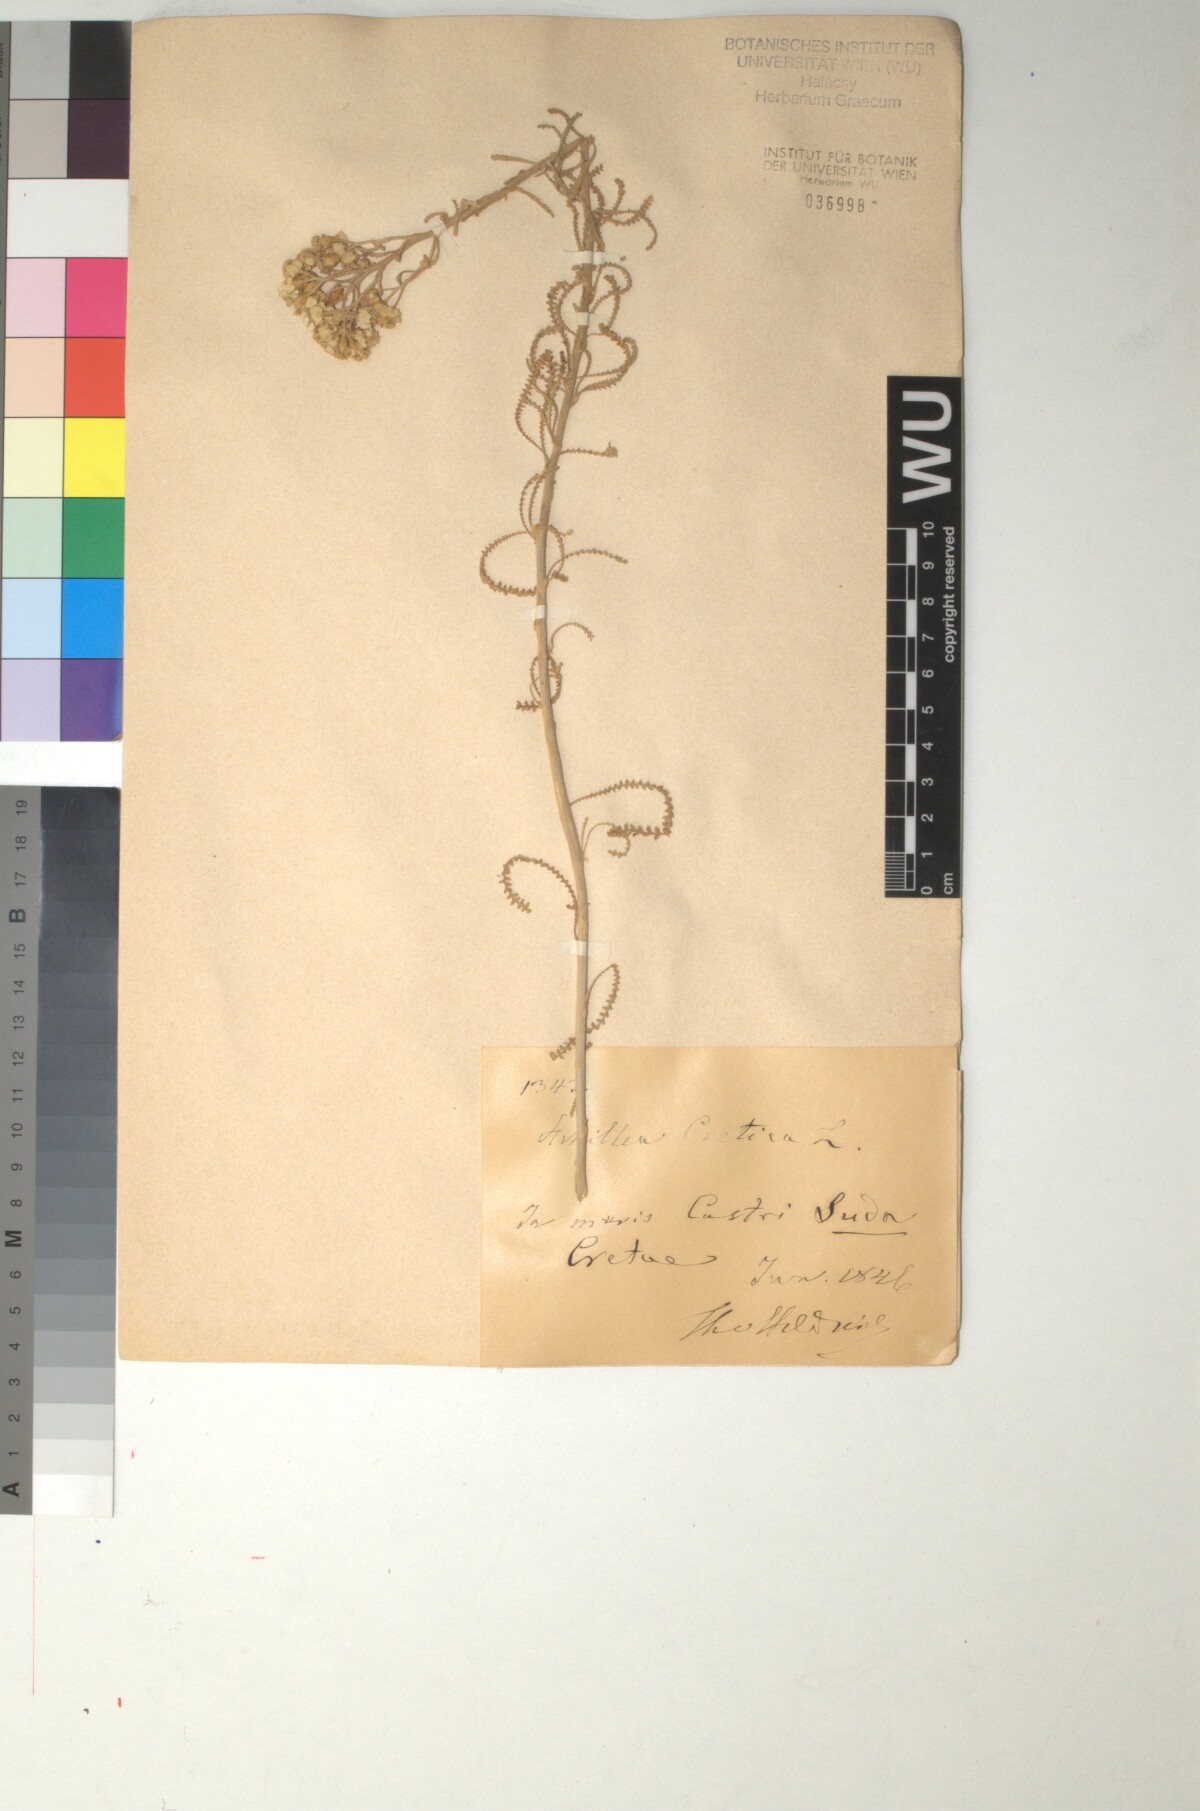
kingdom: Plantae
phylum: Tracheophyta
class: Magnoliopsida
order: Asterales
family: Asteraceae
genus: Achillea
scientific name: Achillea cretica
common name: Chamomile-leaved lavender-cotton
